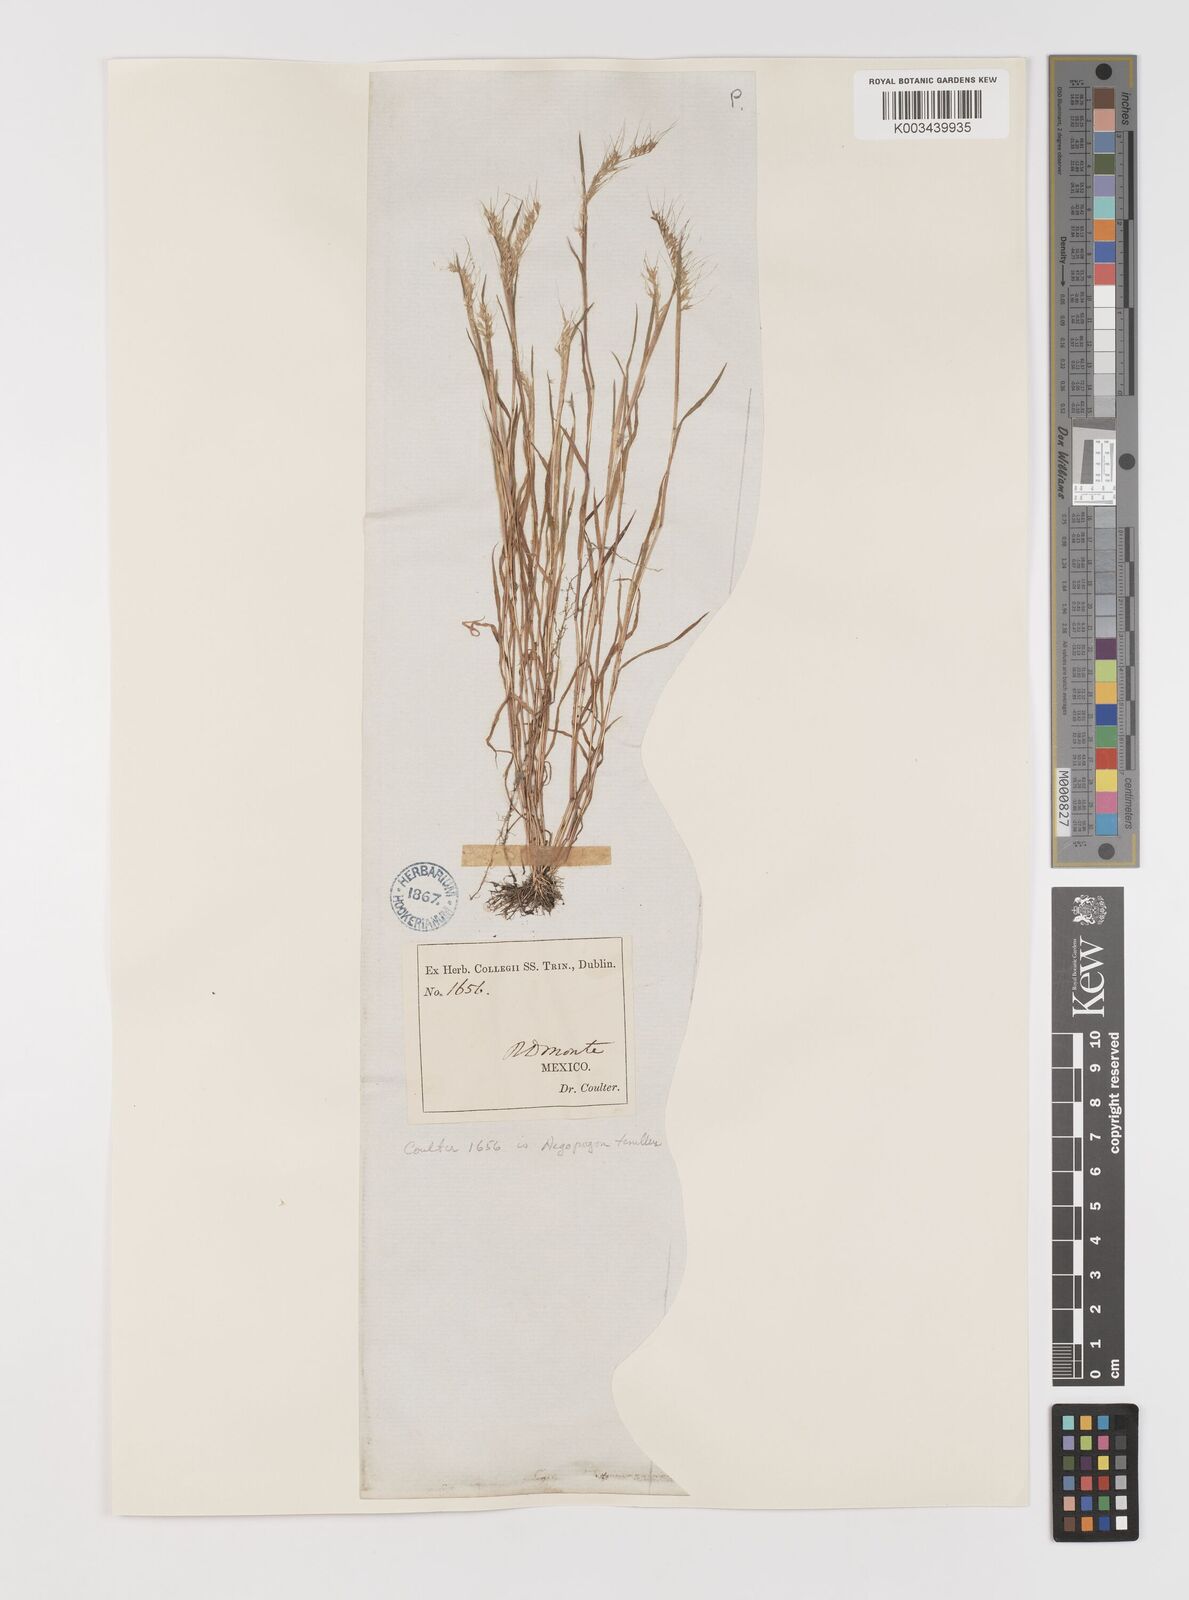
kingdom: Plantae
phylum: Tracheophyta
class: Liliopsida
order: Poales
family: Poaceae
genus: Muhlenbergia
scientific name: Muhlenbergia uniseta
